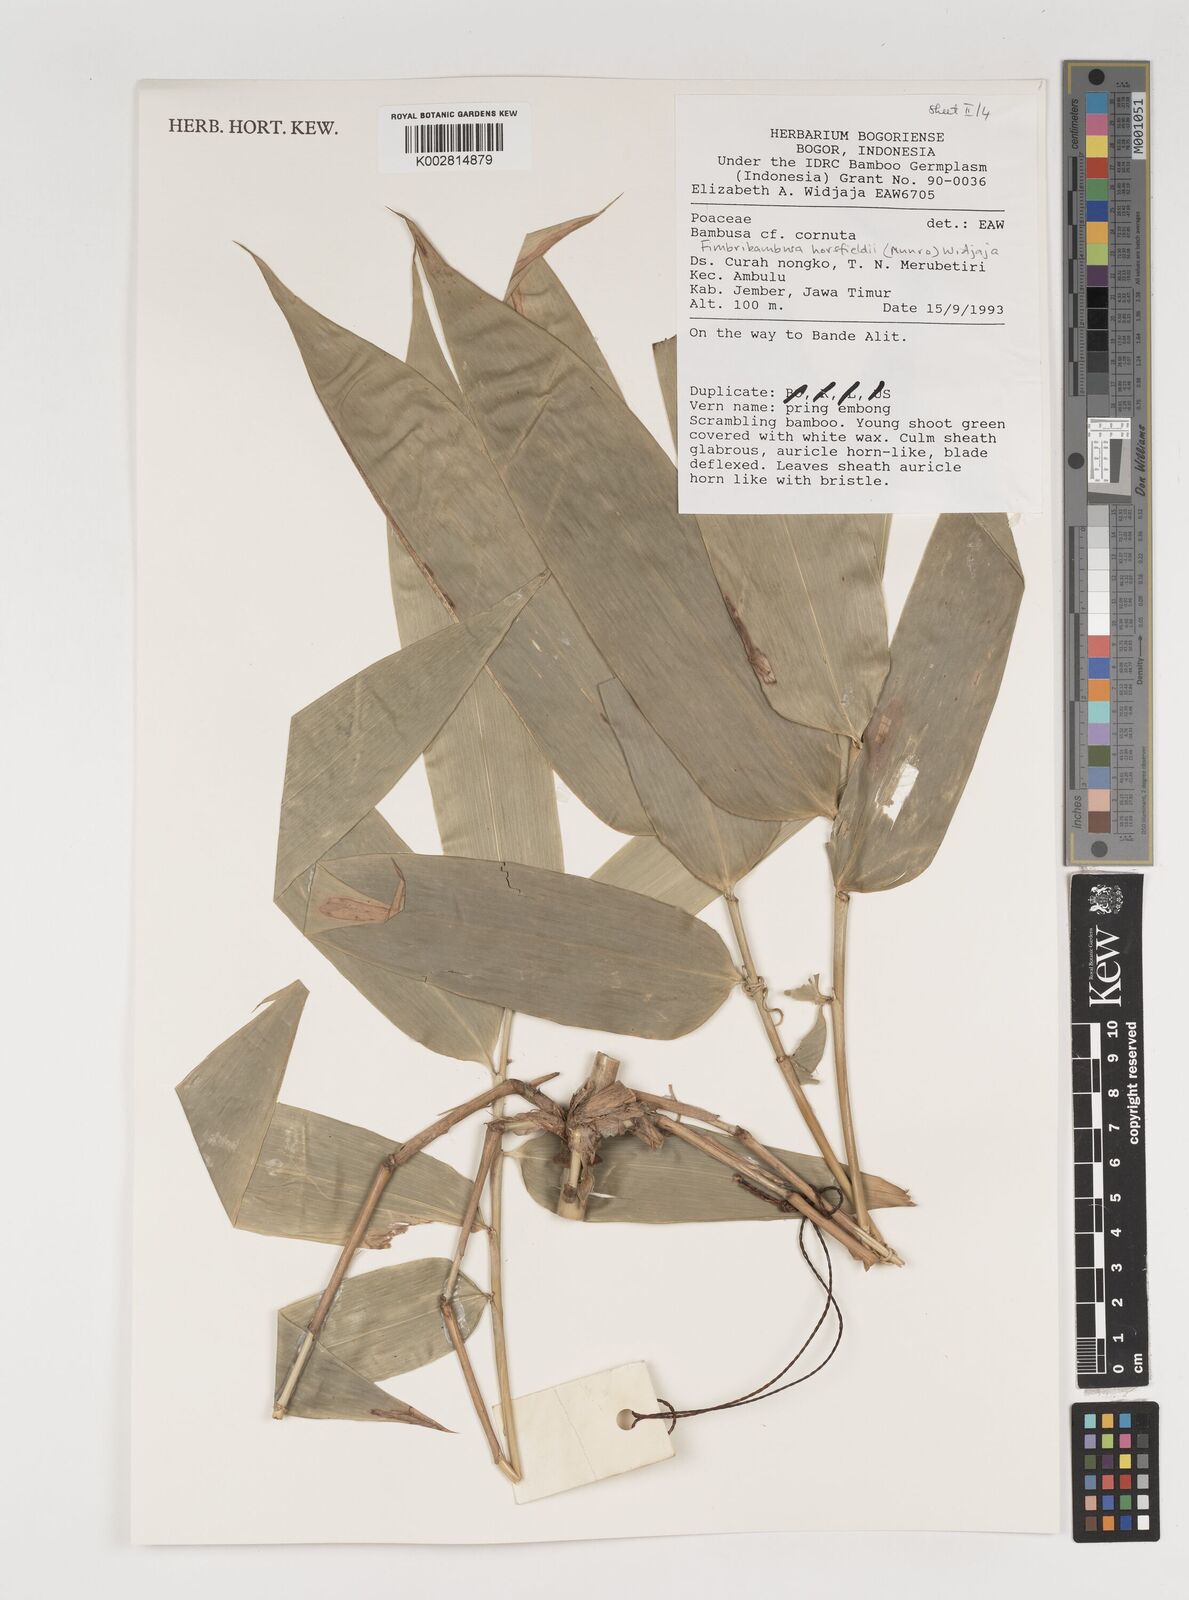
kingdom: Plantae
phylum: Tracheophyta
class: Liliopsida
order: Poales
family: Poaceae
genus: Fimbribambusa
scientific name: Fimbribambusa horsfieldii
